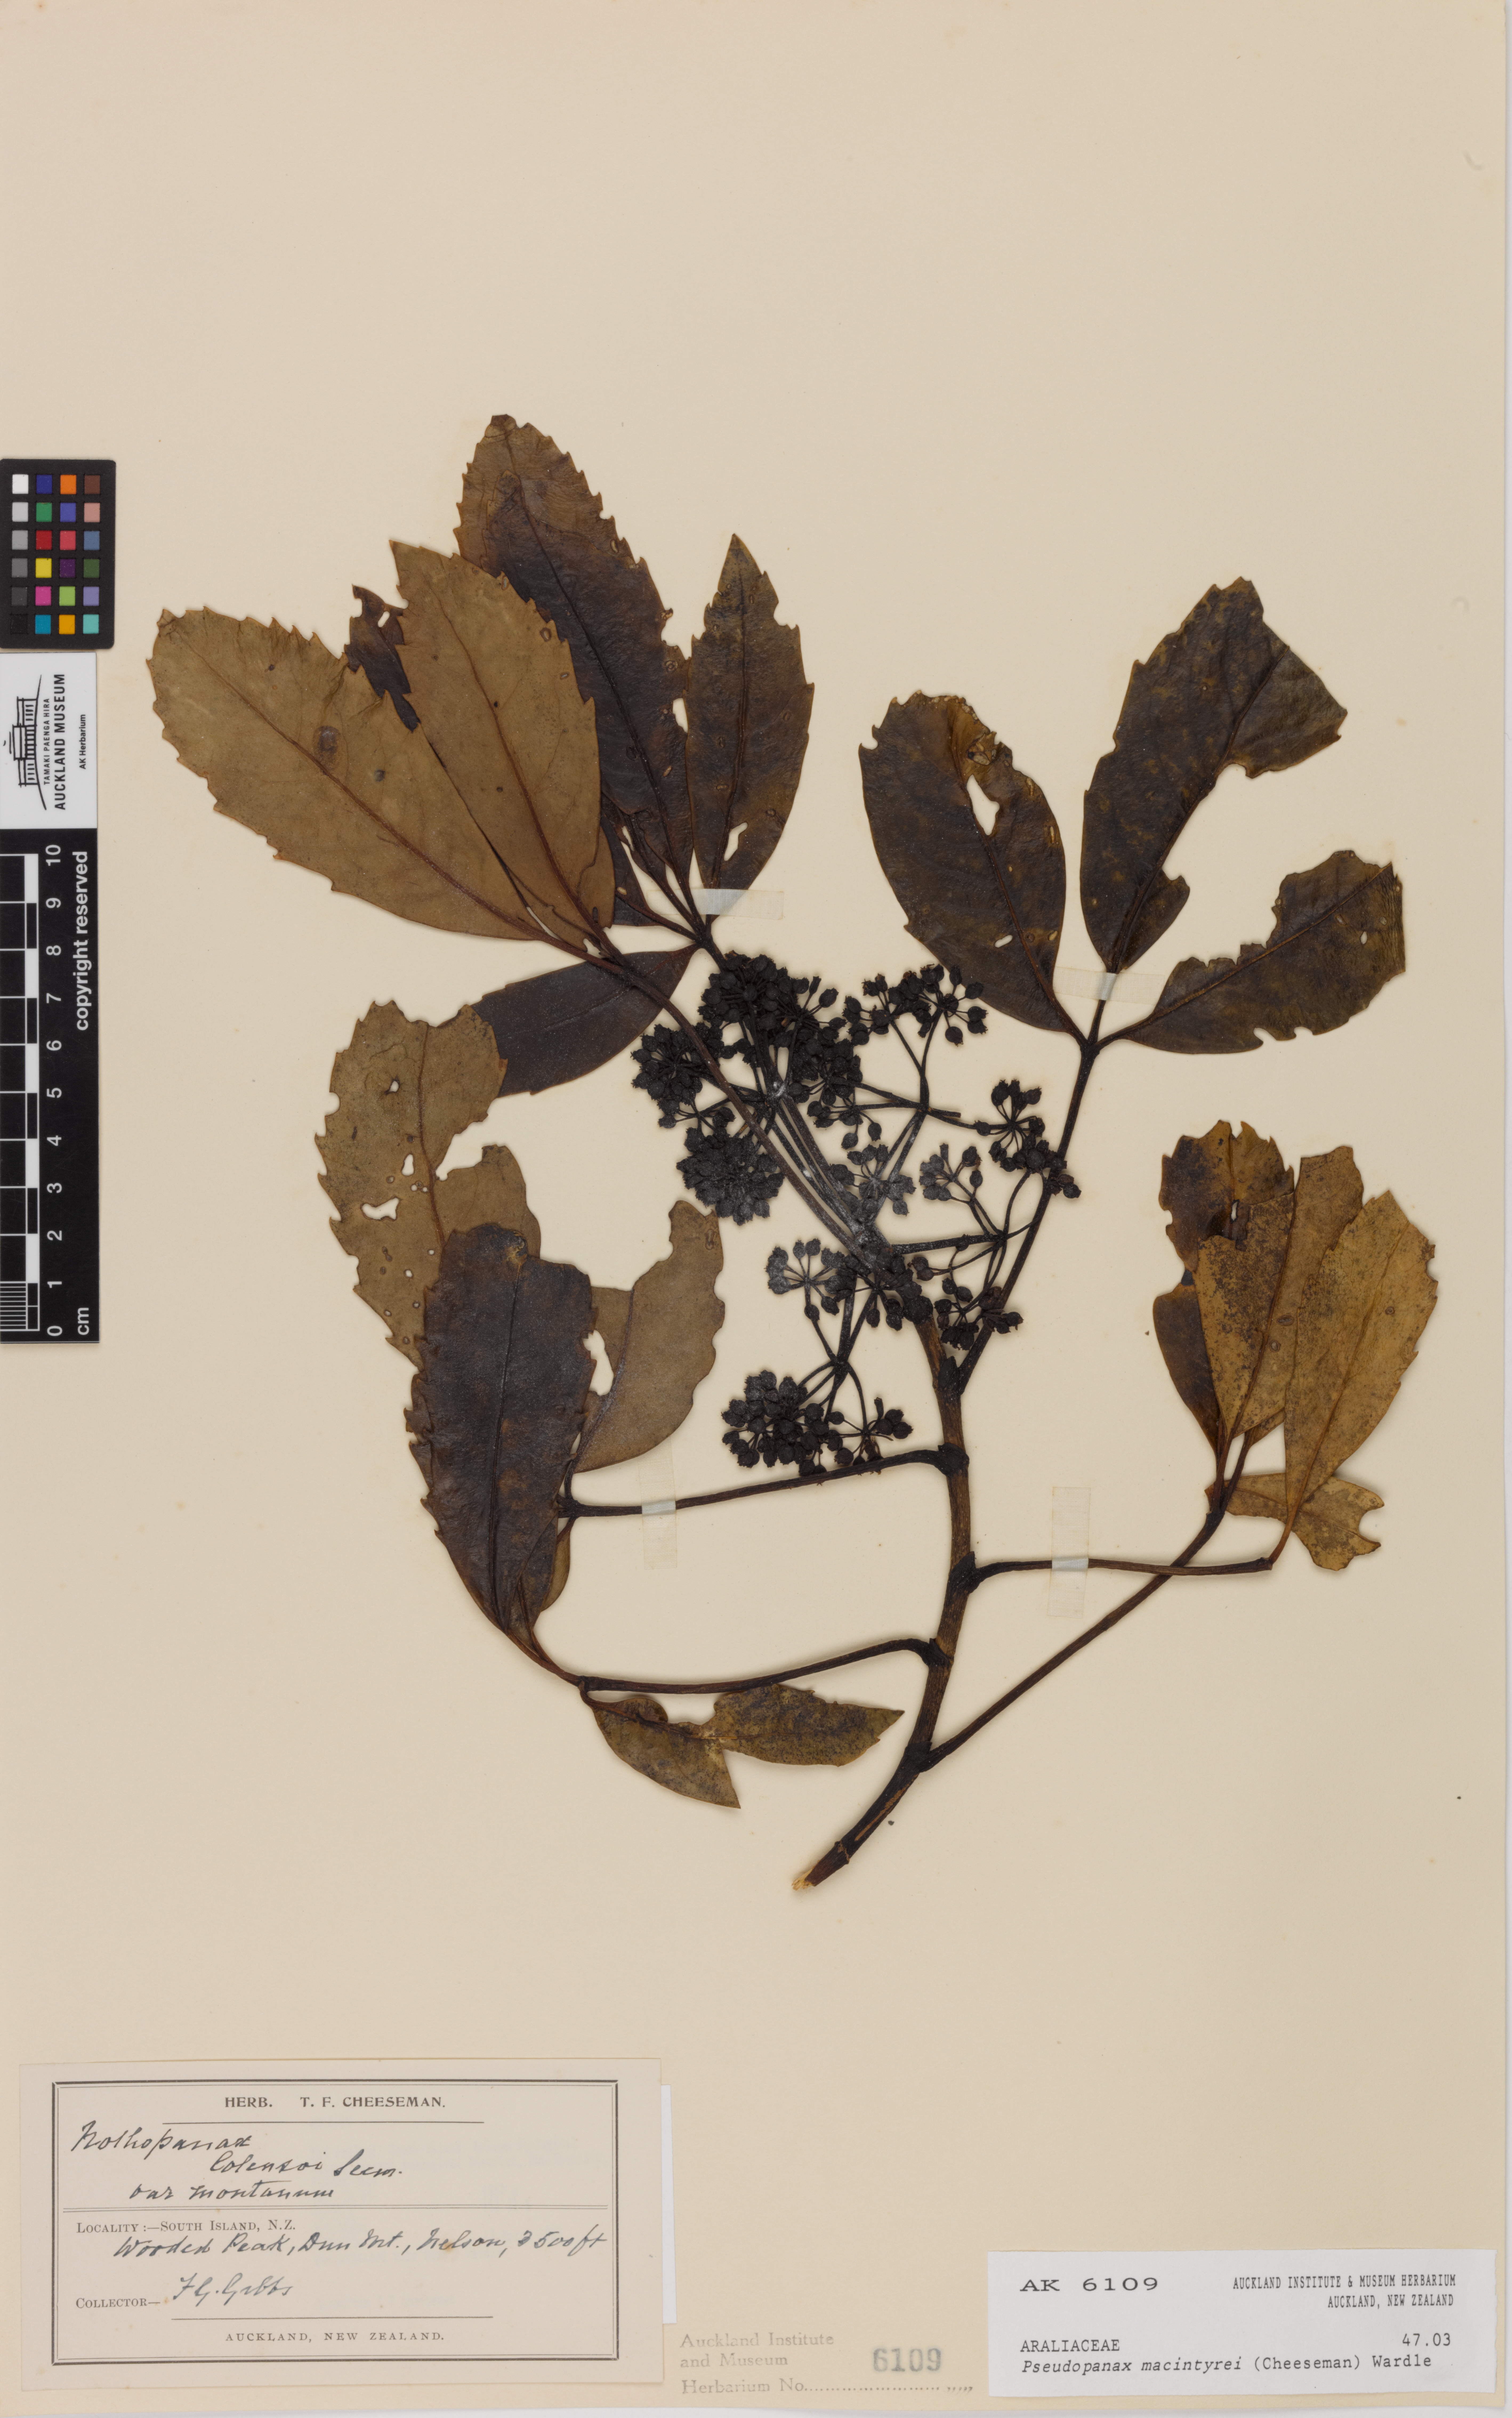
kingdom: Plantae
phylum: Tracheophyta
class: Magnoliopsida
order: Apiales
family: Araliaceae
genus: Neopanax
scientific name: Neopanax macintyrei
